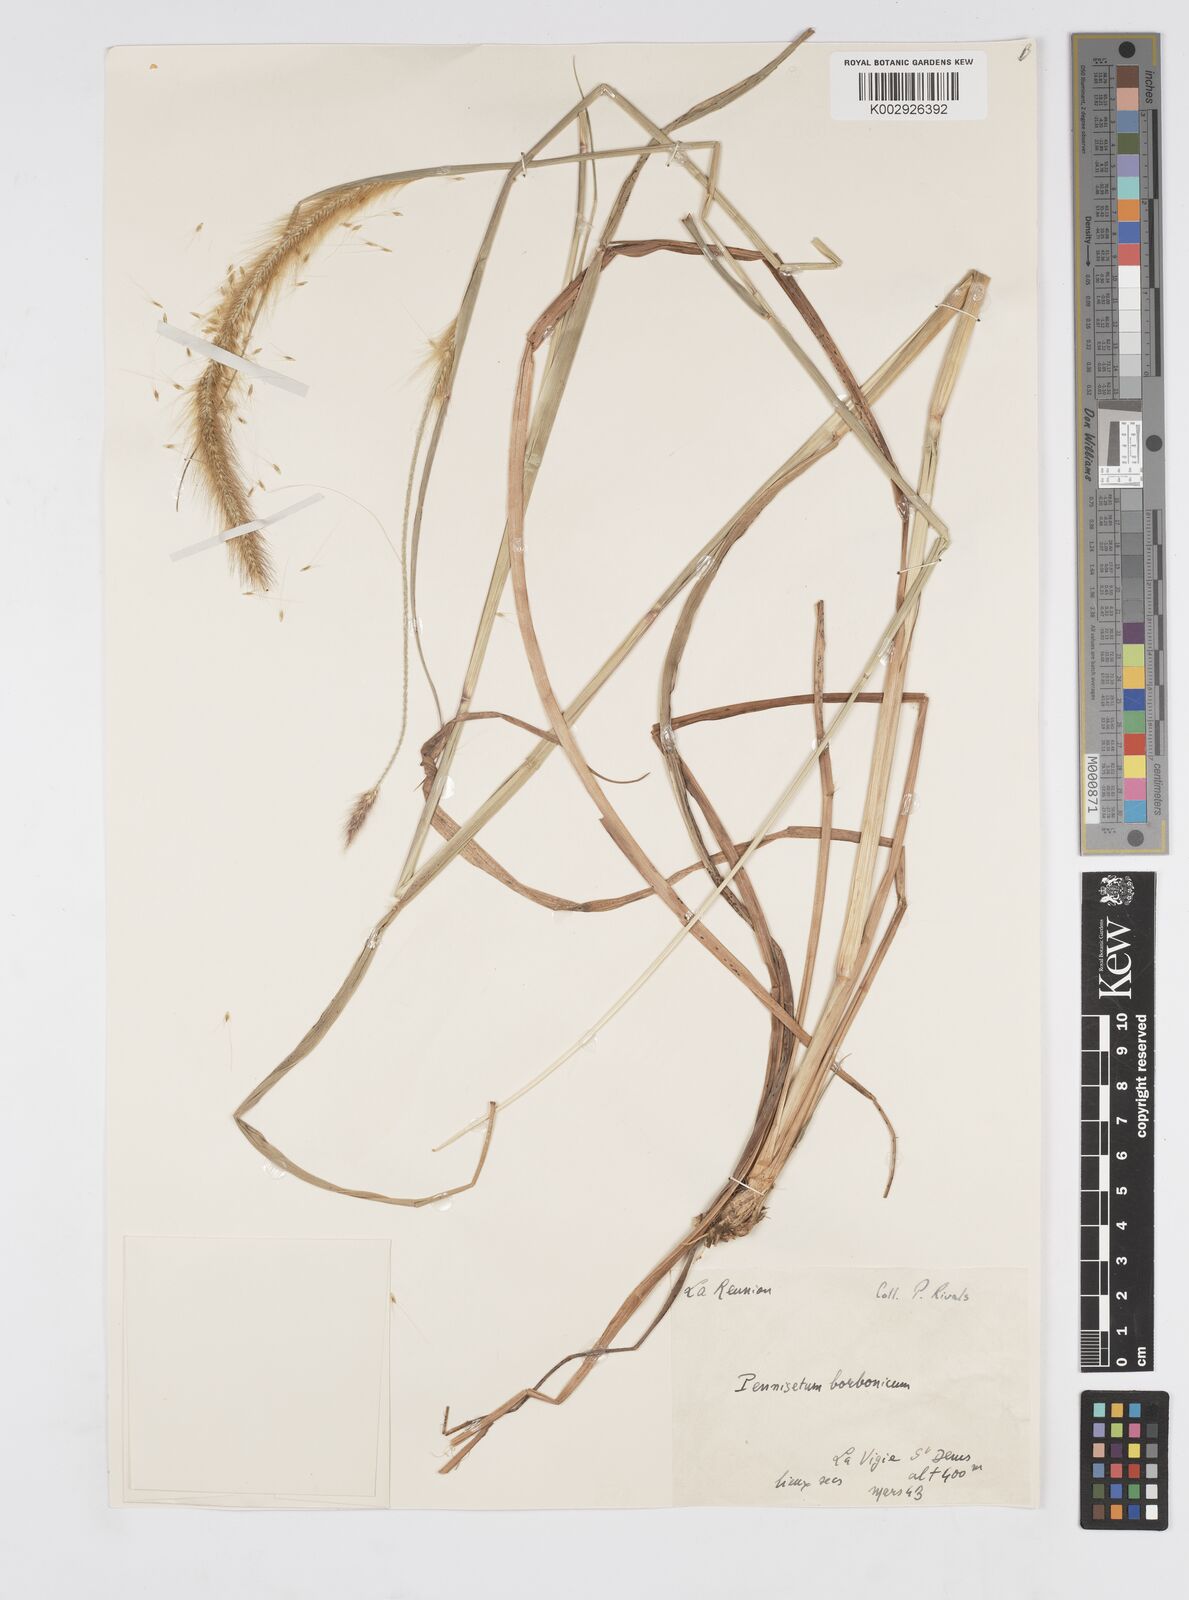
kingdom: Plantae
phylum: Tracheophyta
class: Liliopsida
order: Poales
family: Poaceae
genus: Setaria
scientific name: Setaria parviflora
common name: Knotroot bristle-grass
